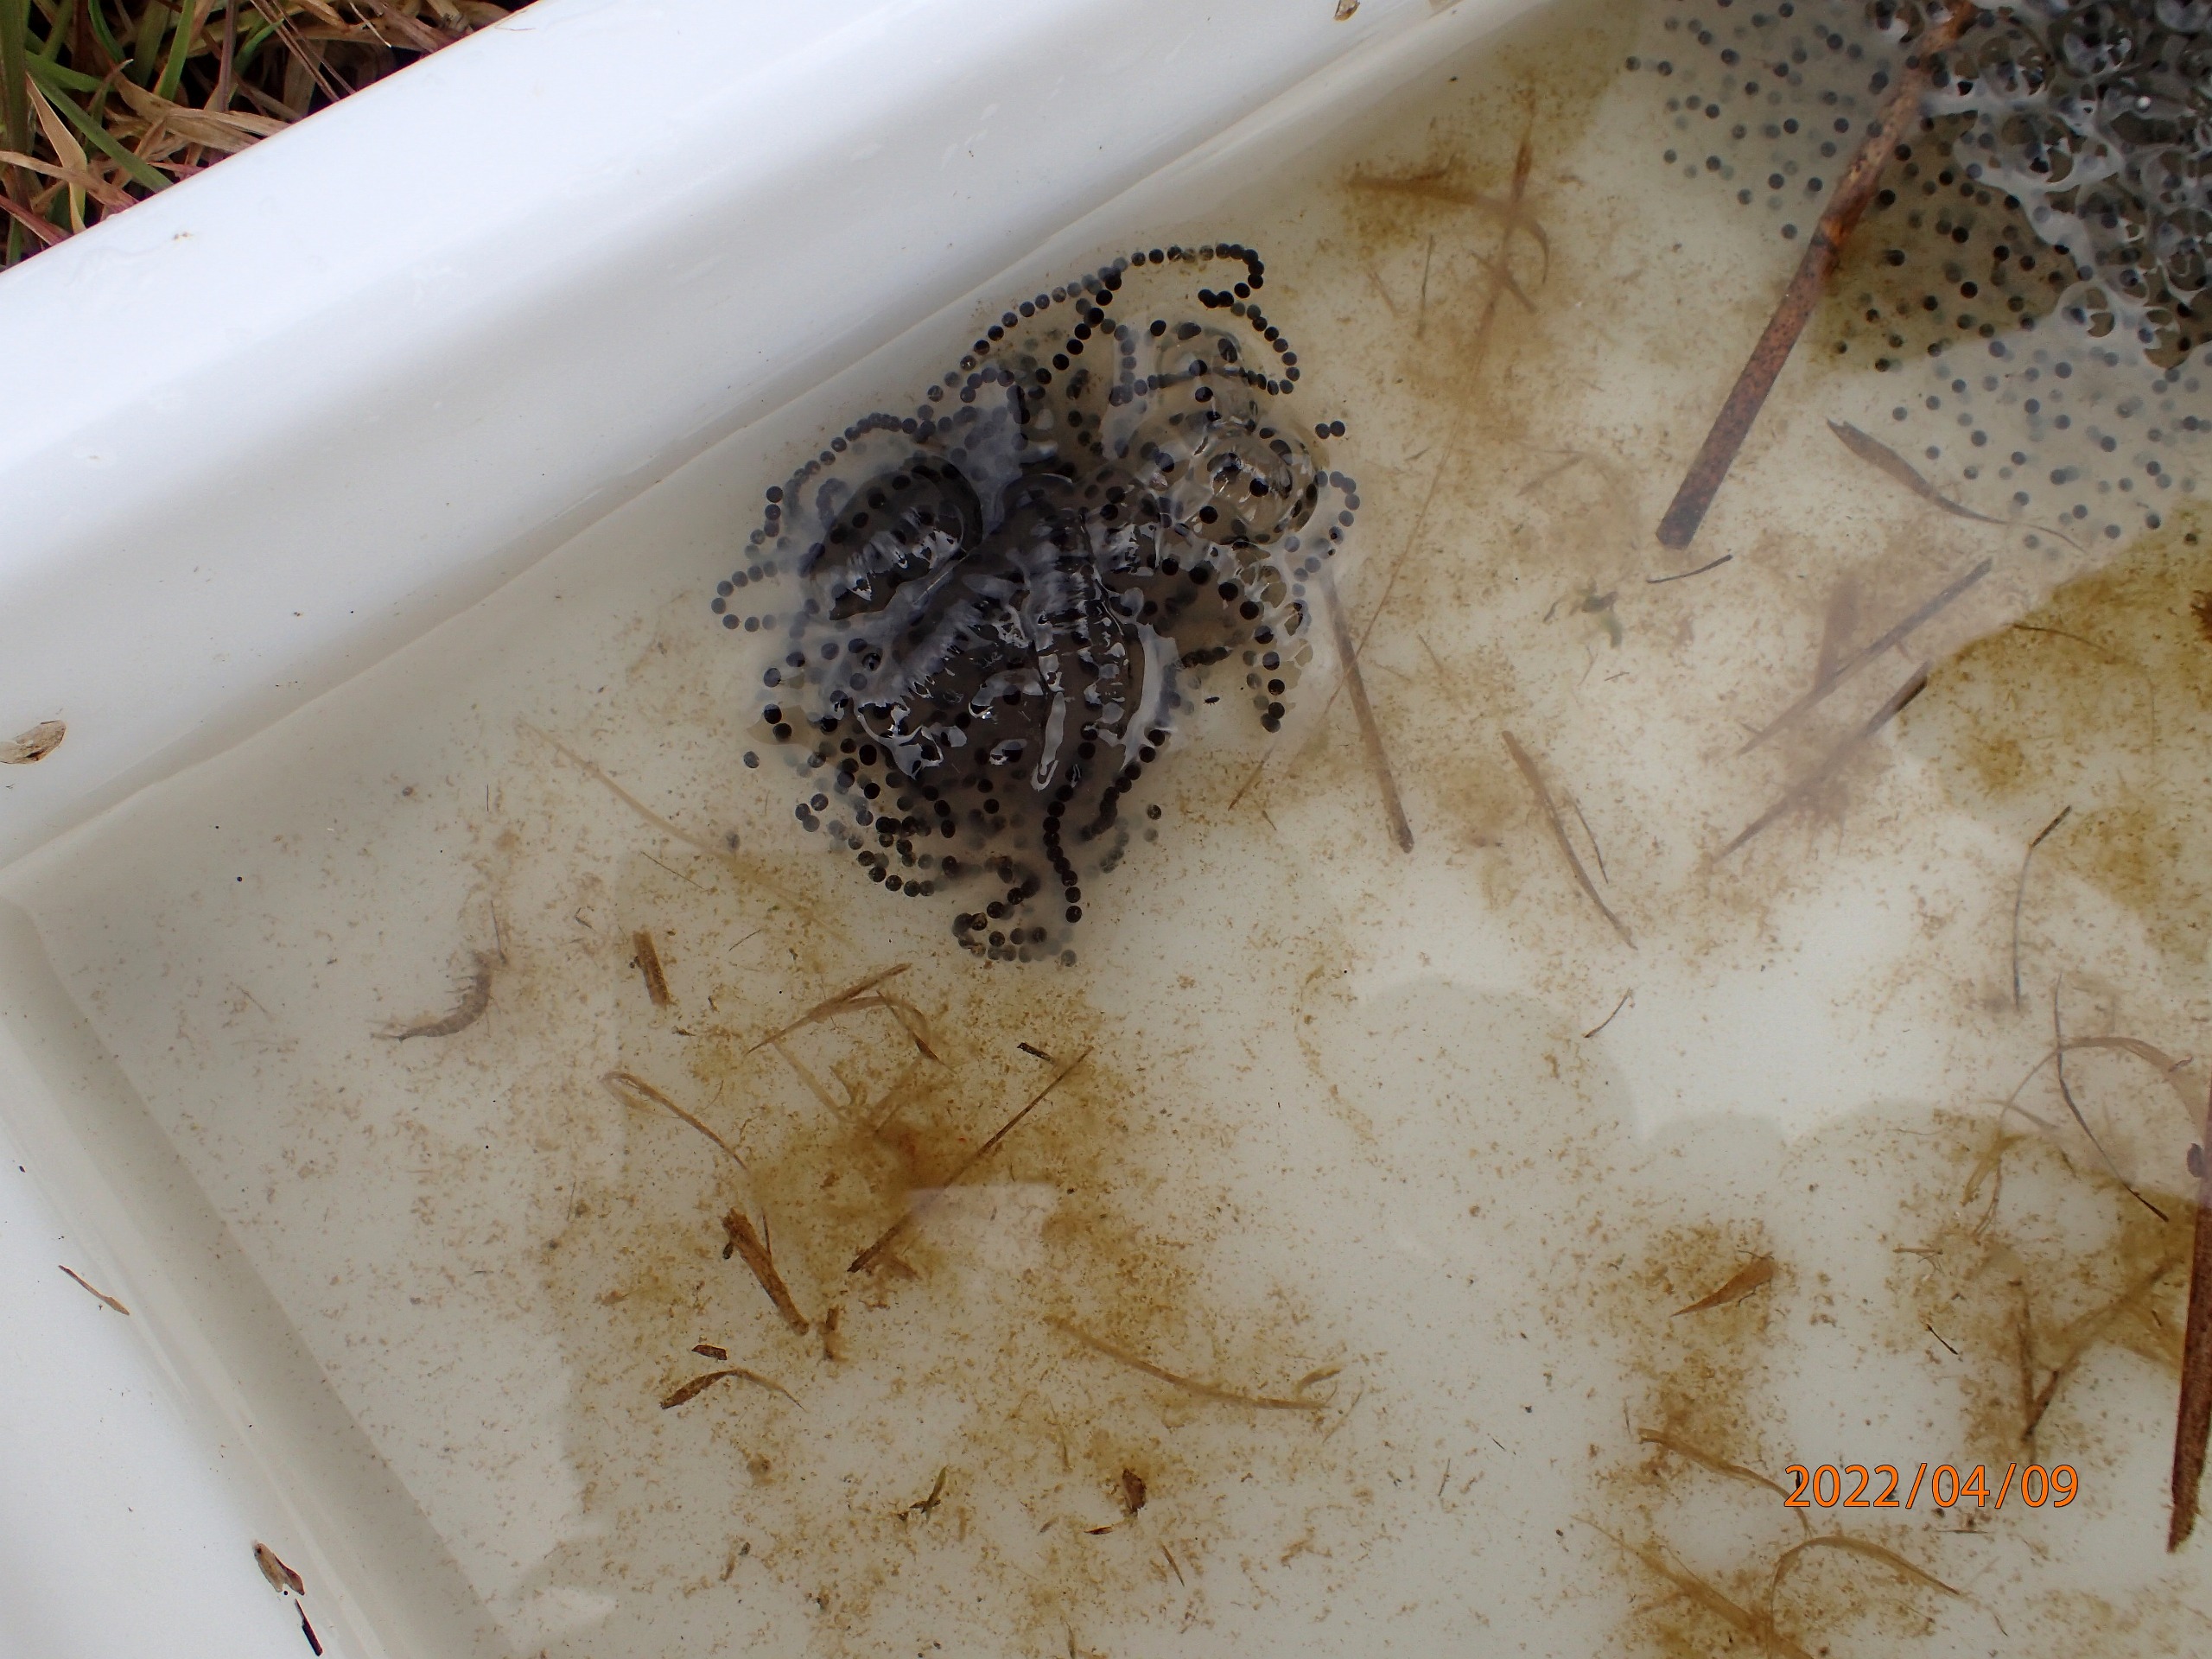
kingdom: Animalia
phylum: Chordata
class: Amphibia
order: Anura
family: Bufonidae
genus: Bufo
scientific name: Bufo bufo
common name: Skrubtudse
